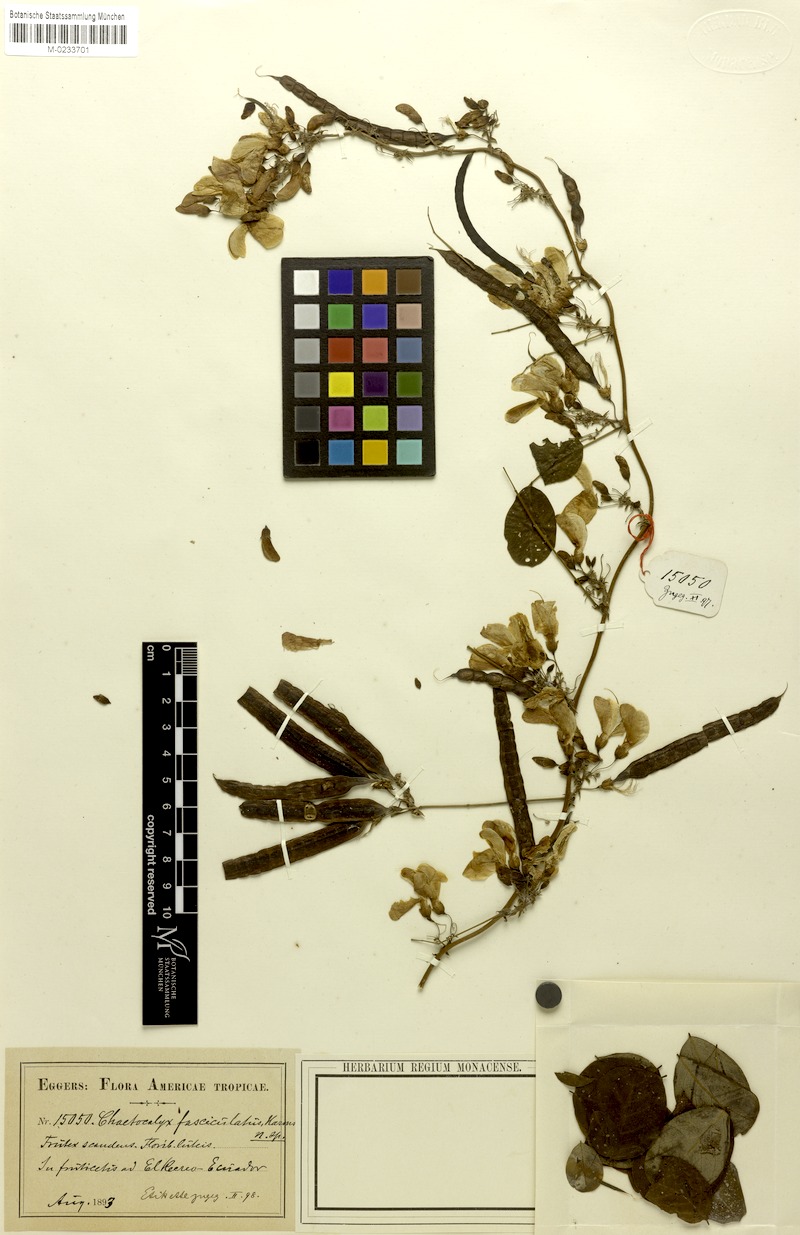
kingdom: Plantae
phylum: Tracheophyta
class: Magnoliopsida
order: Fabales
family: Fabaceae
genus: Nissolia
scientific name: Nissolia Chaetocalyx latisiliqua
